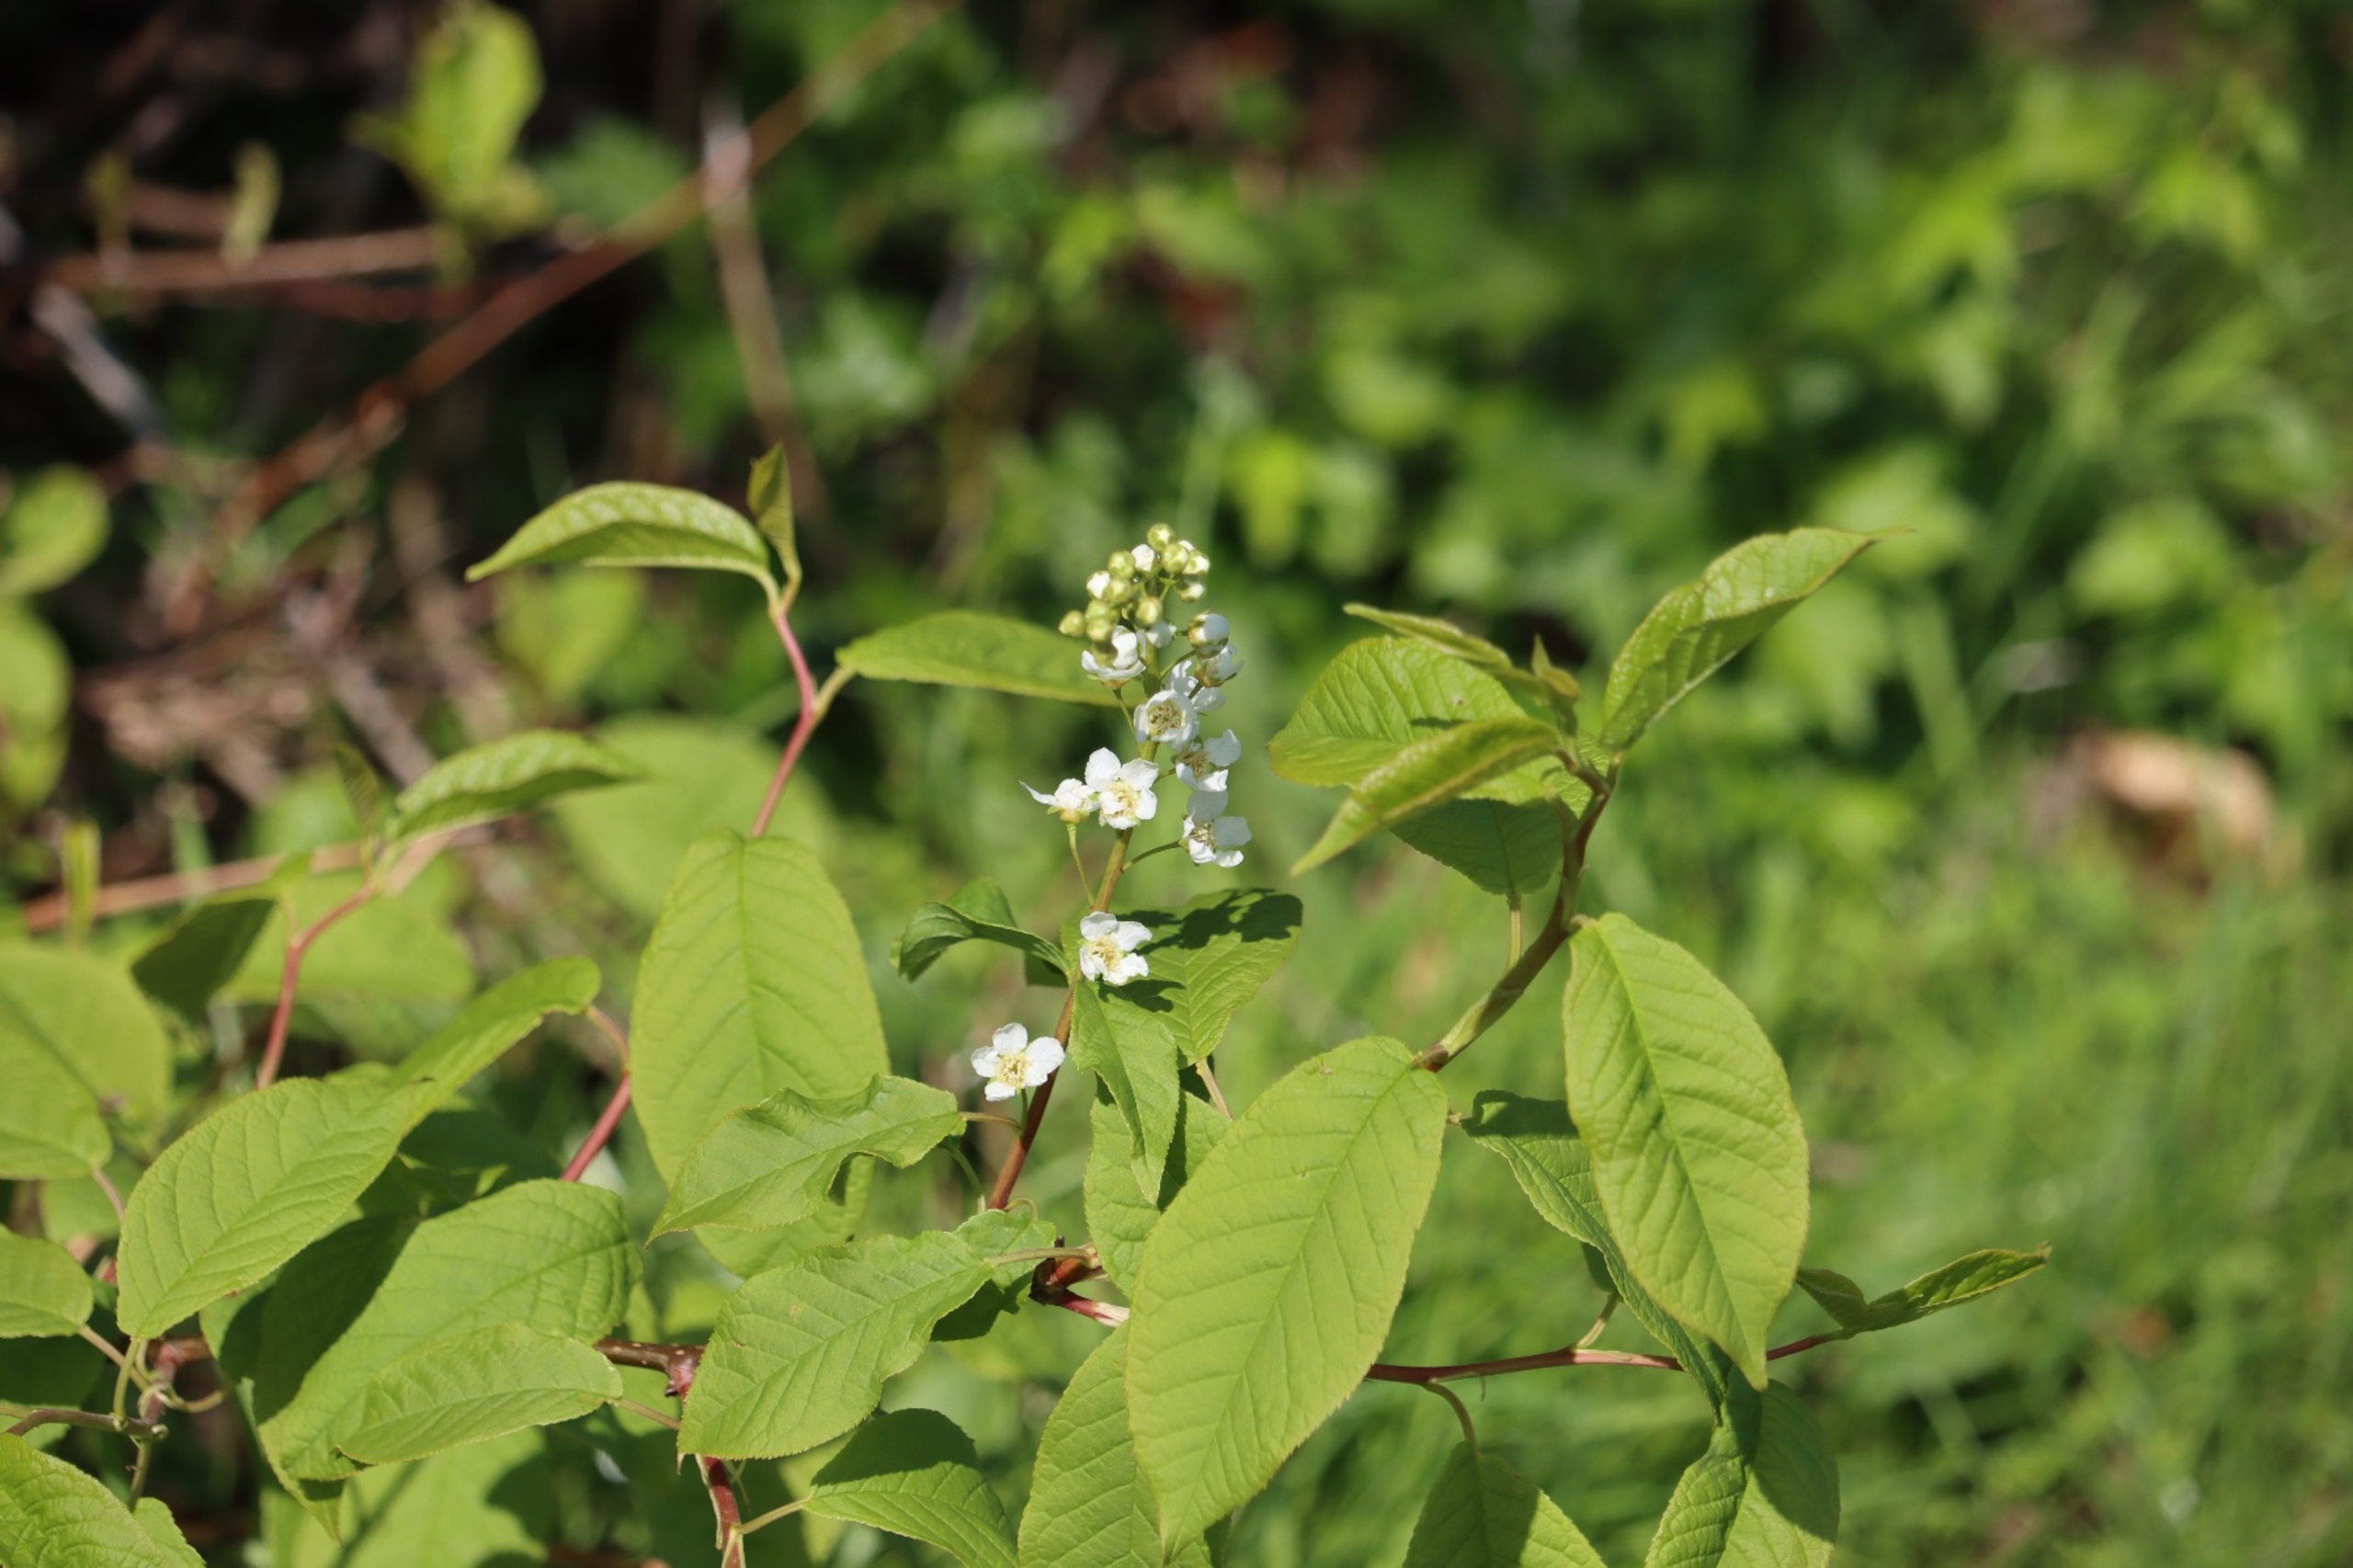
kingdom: Plantae
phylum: Tracheophyta
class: Magnoliopsida
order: Rosales
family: Rosaceae
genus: Prunus
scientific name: Prunus padus
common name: Almindelig hæg
